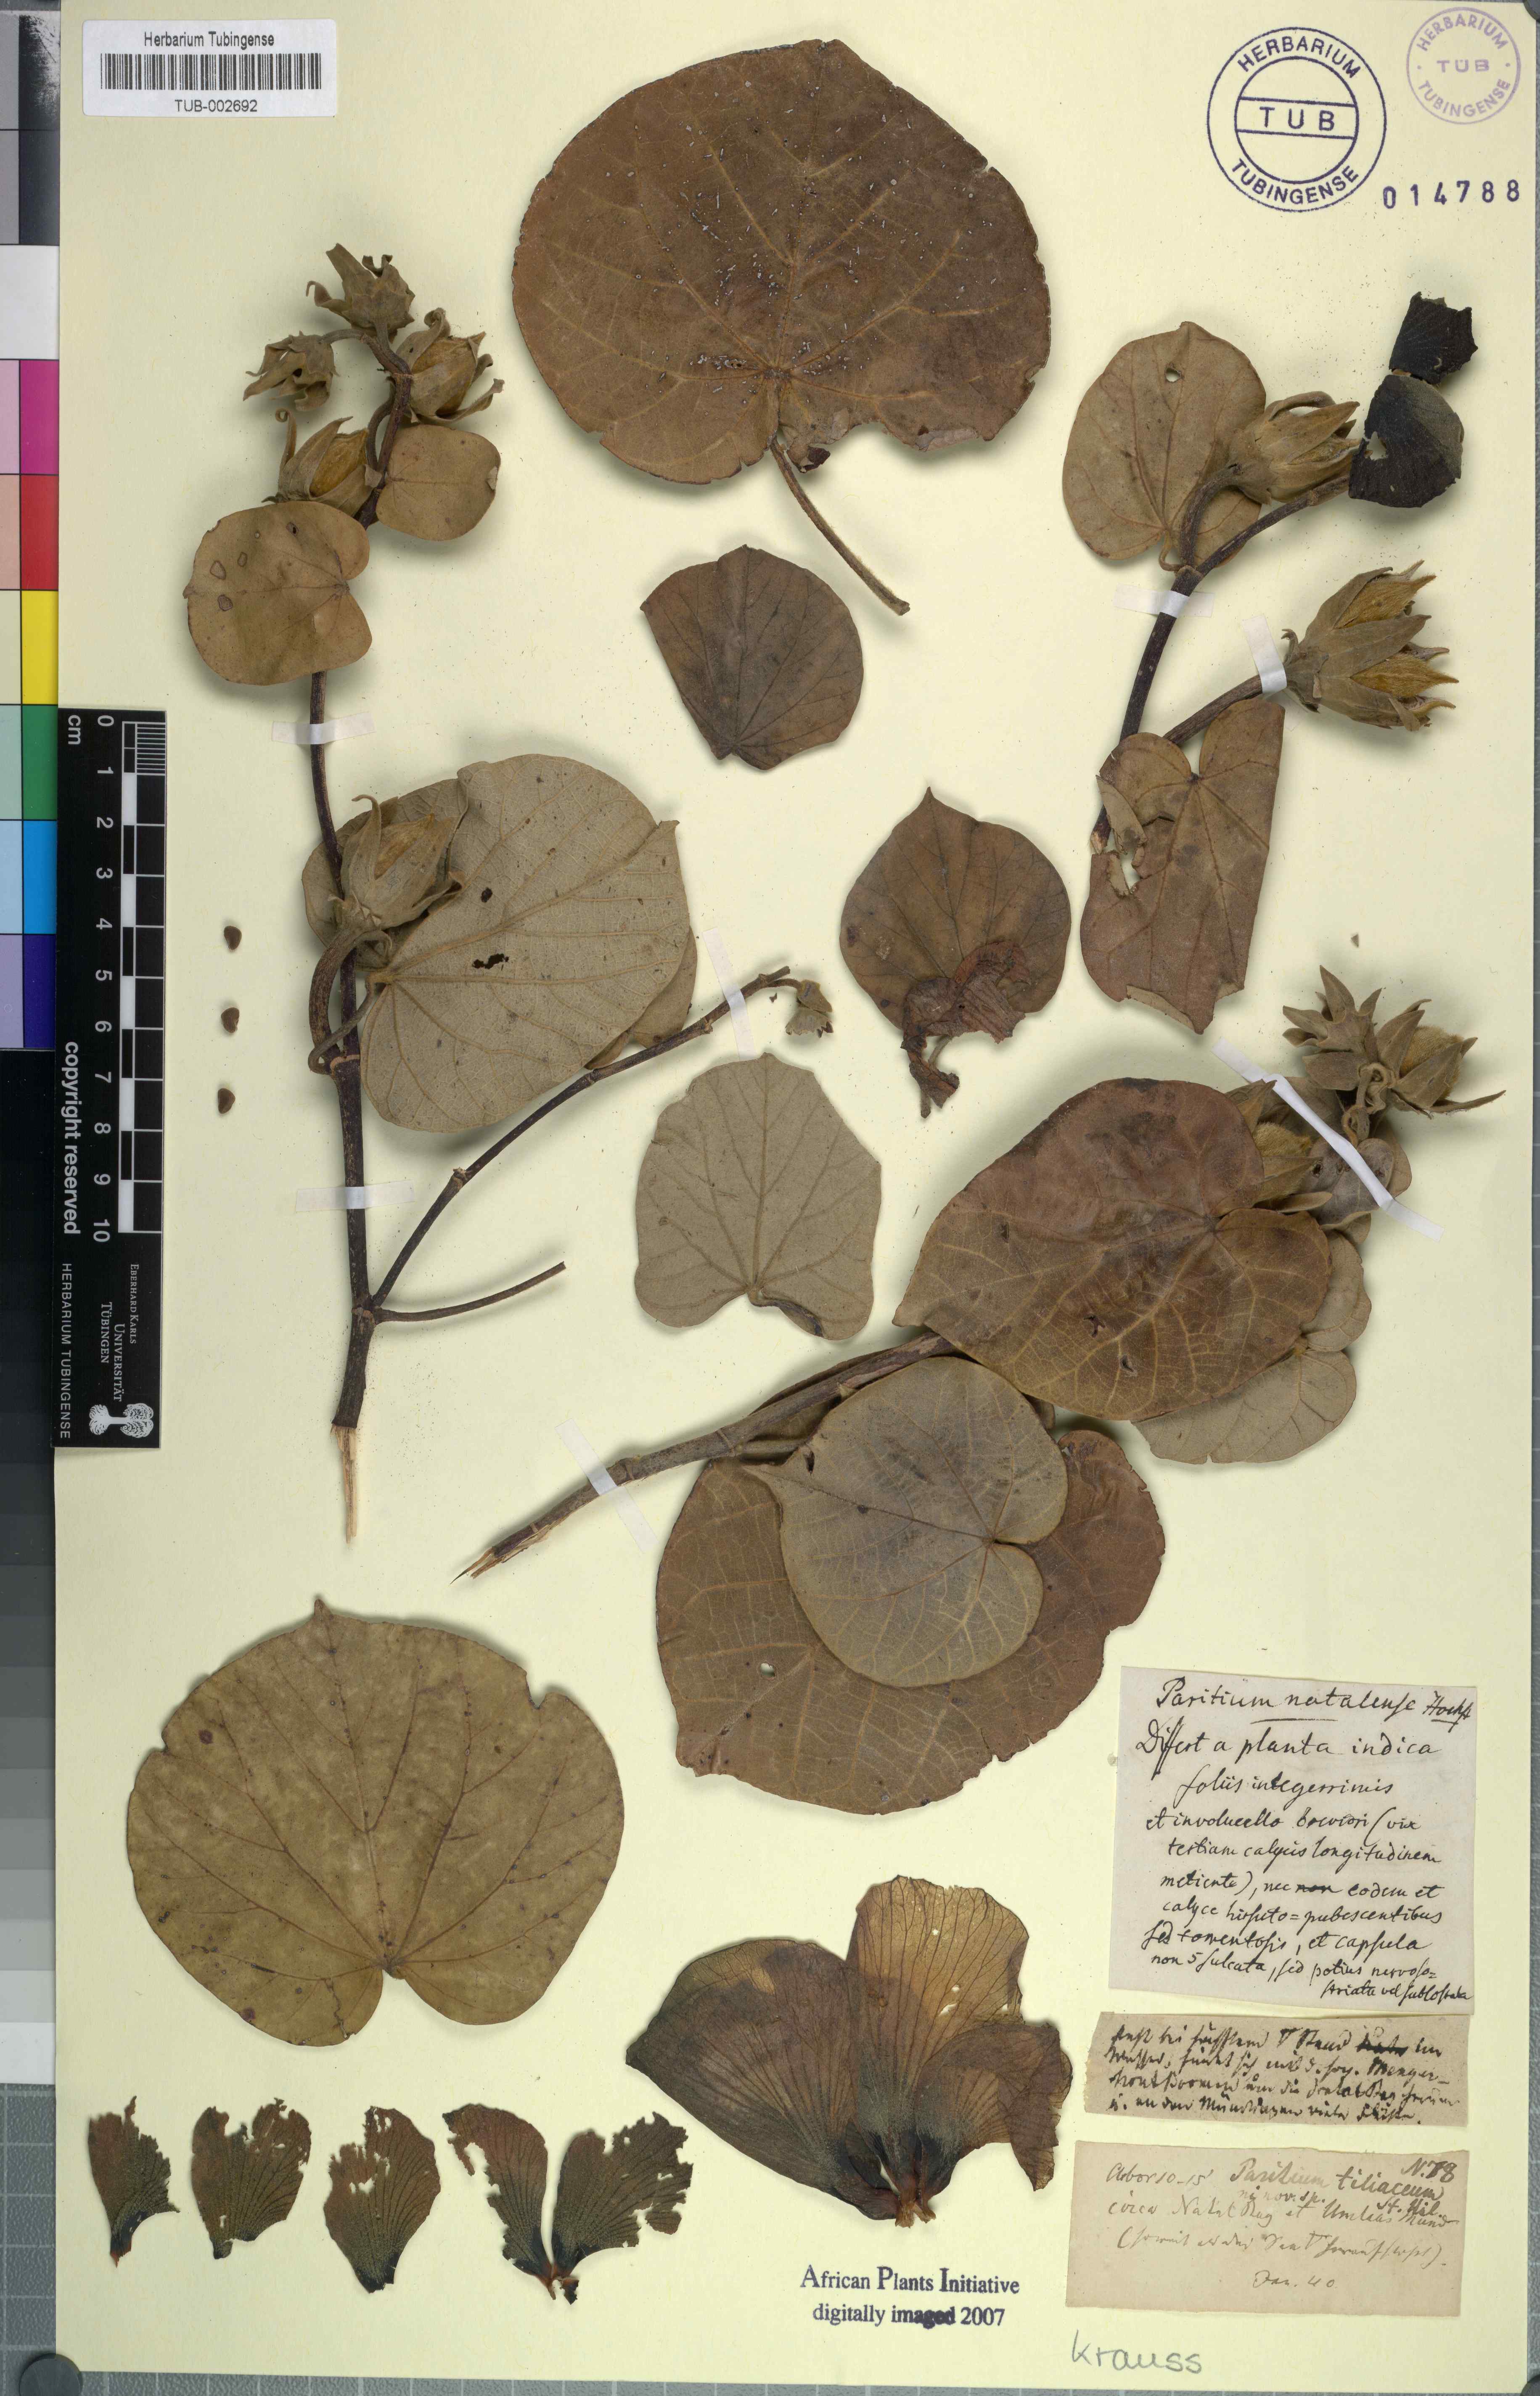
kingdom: Plantae
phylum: Tracheophyta
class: Magnoliopsida
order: Malvales
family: Malvaceae
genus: Talipariti
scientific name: Talipariti tiliaceum
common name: Sea hibiscus
